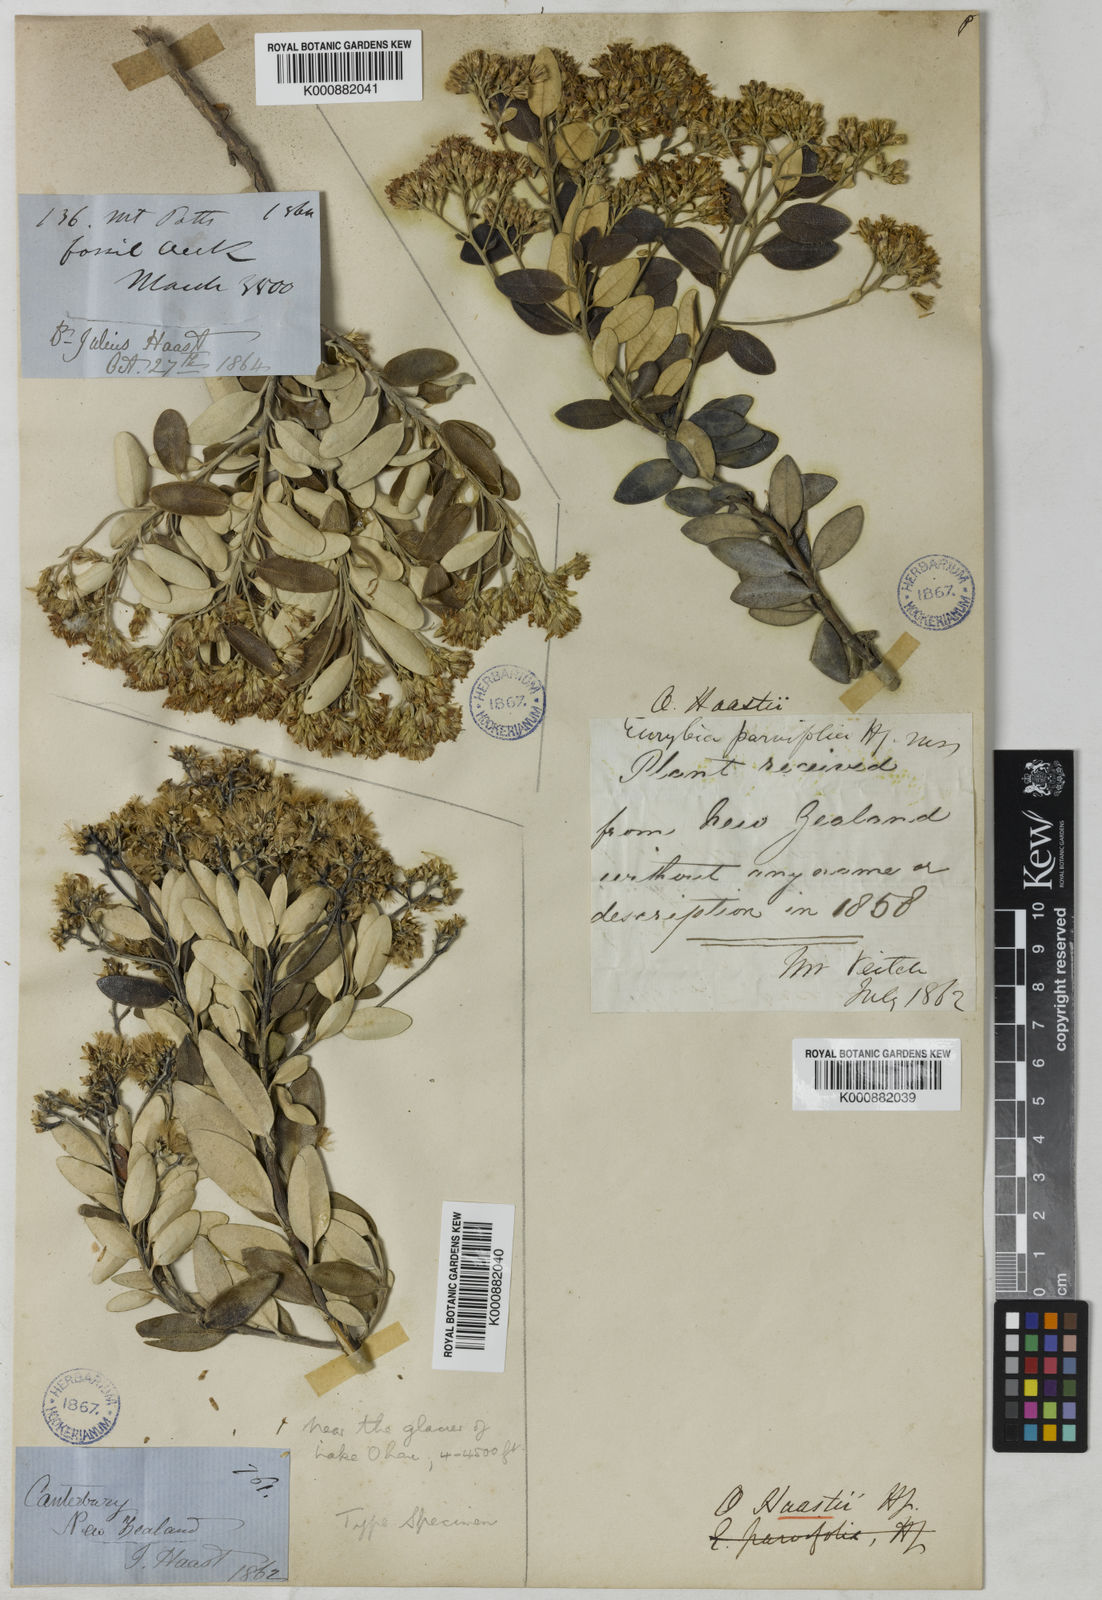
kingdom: Plantae
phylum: Tracheophyta
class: Magnoliopsida
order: Asterales
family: Asteraceae
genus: Olearia
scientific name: Olearia haastii
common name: Daisybush
